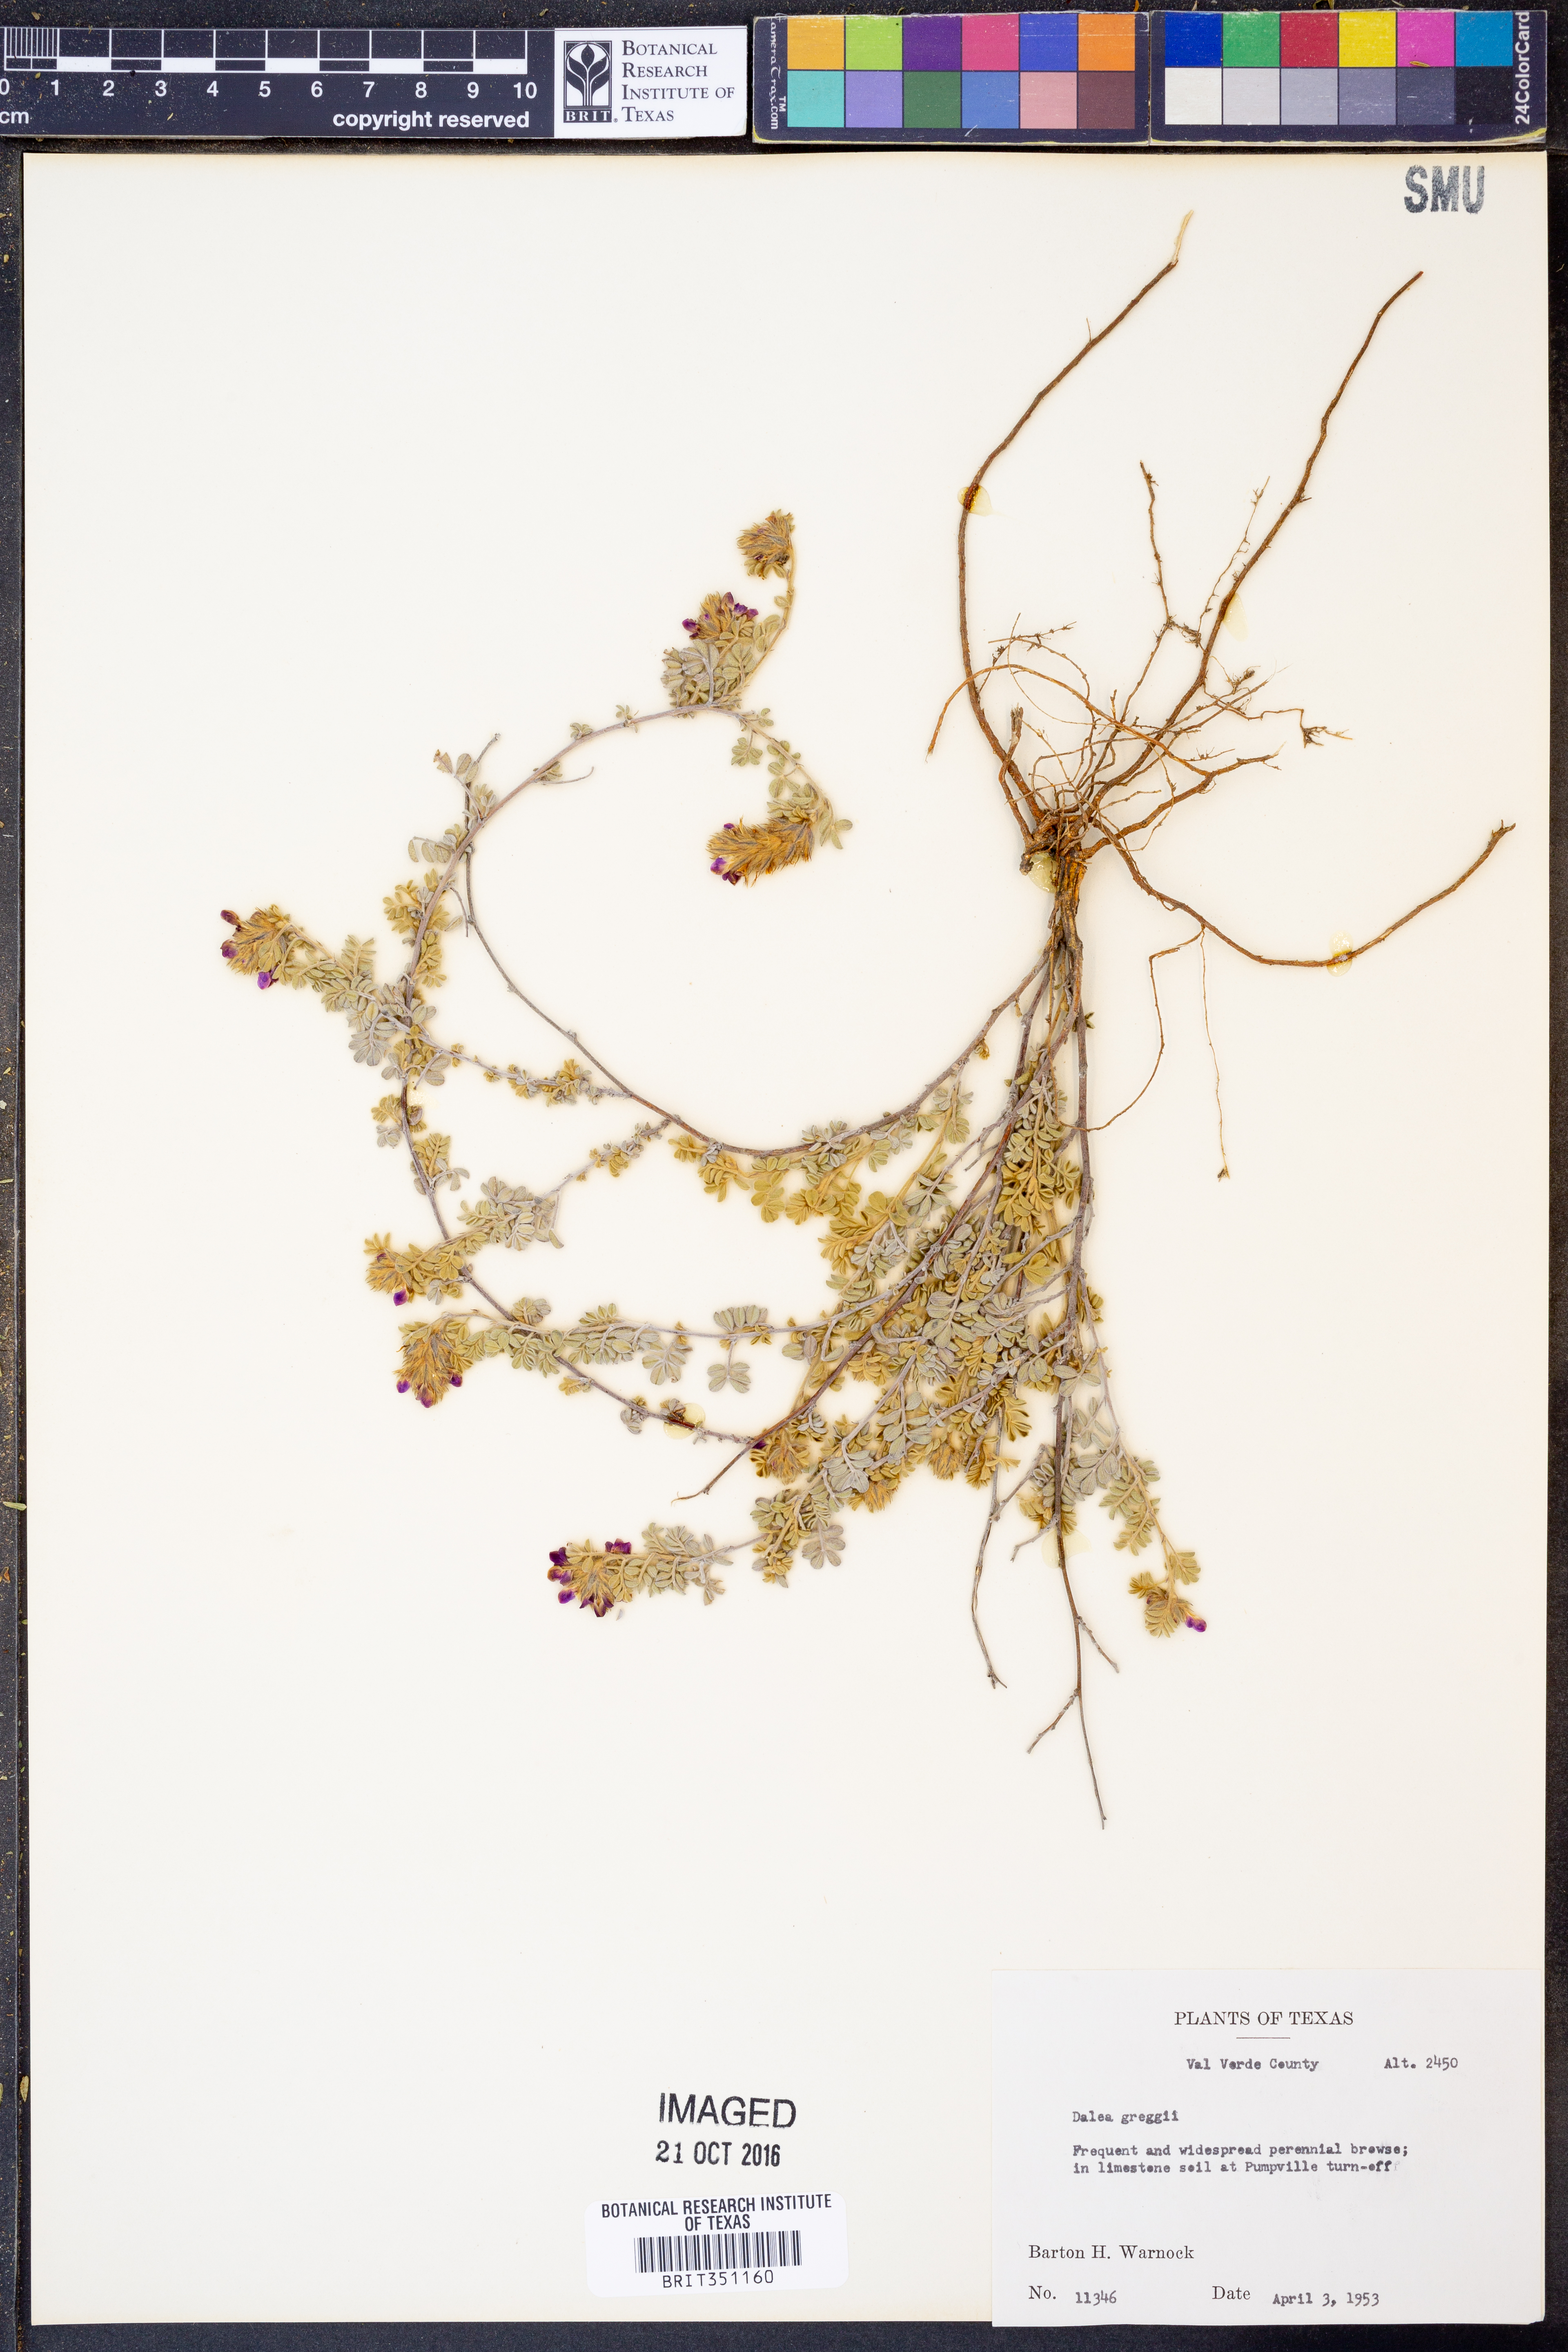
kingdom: Plantae
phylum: Tracheophyta
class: Magnoliopsida
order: Fabales
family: Fabaceae
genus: Dalea
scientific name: Dalea greggii
